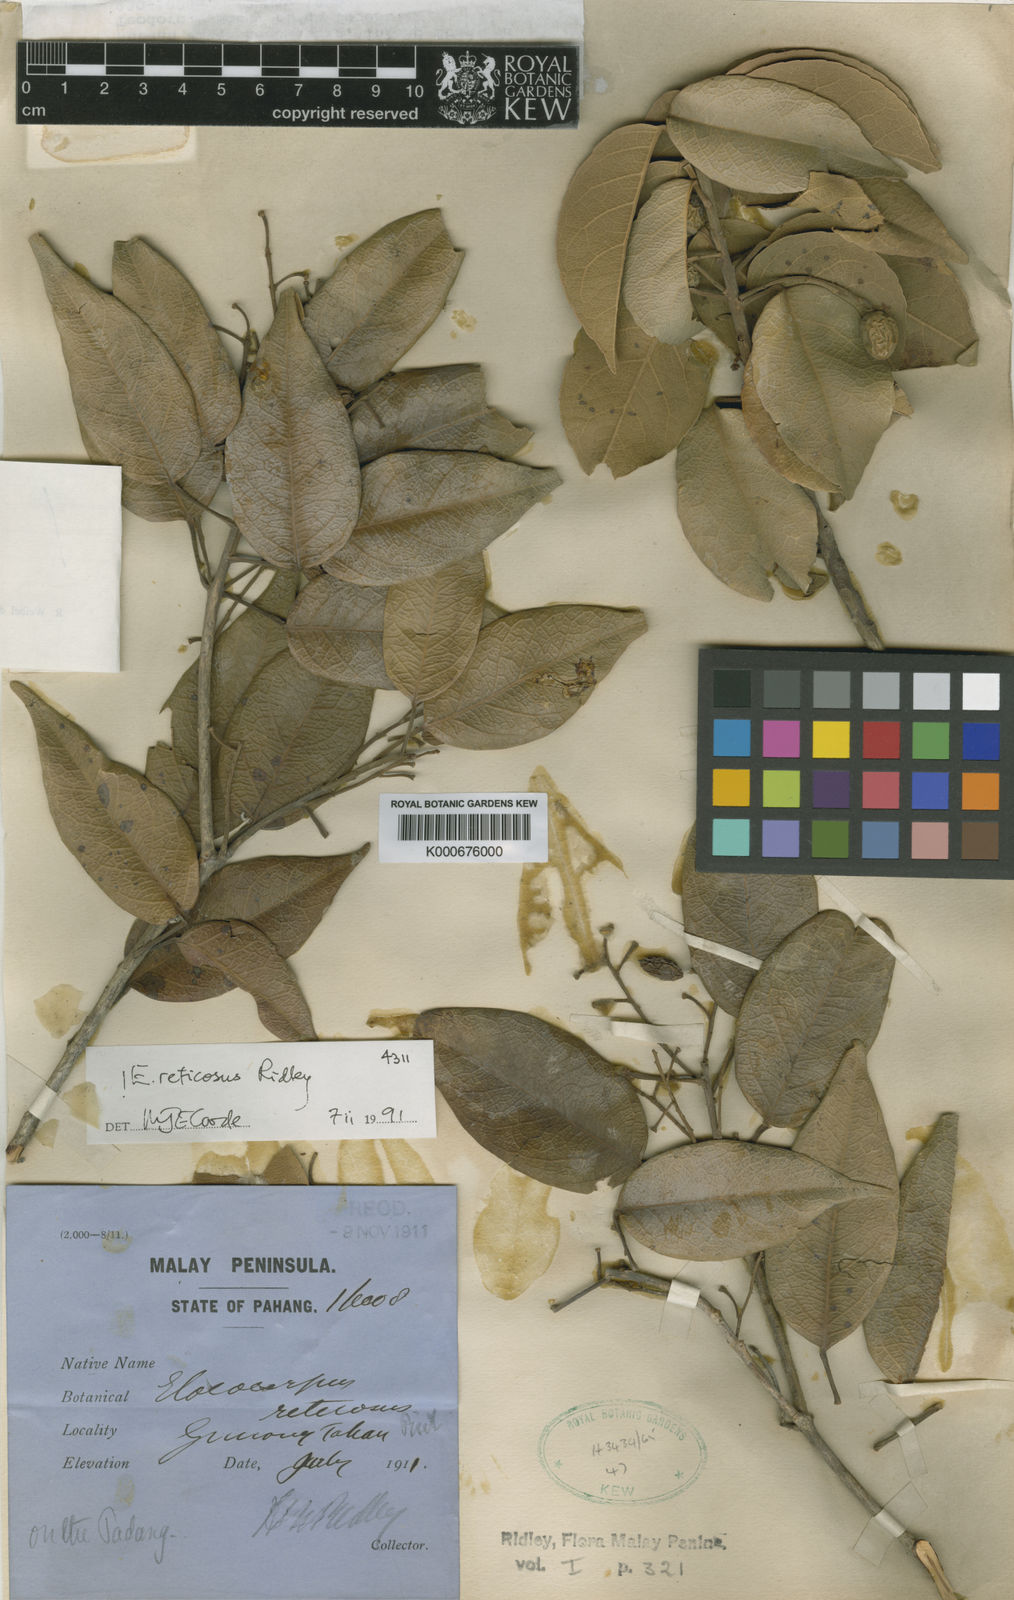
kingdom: Plantae
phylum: Tracheophyta
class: Magnoliopsida
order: Oxalidales
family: Elaeocarpaceae
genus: Elaeocarpus
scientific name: Elaeocarpus reticosus
